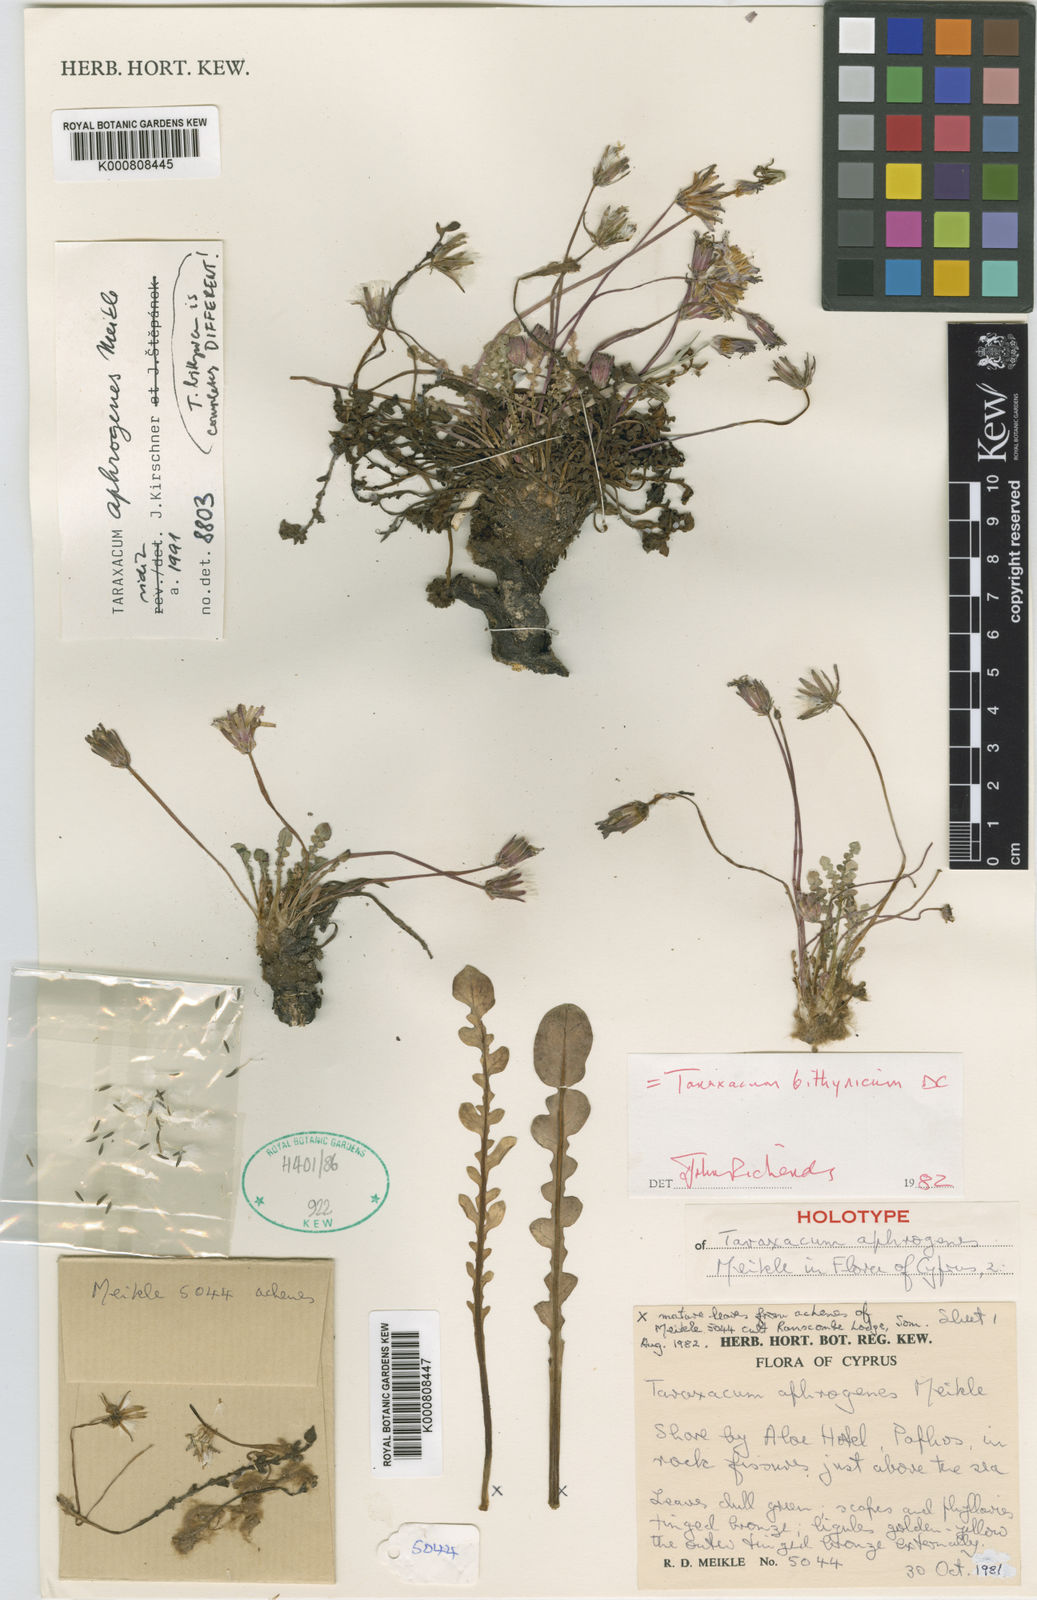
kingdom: Plantae
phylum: Tracheophyta
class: Magnoliopsida
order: Asterales
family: Asteraceae
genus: Taraxacum
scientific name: Taraxacum bithynicum
